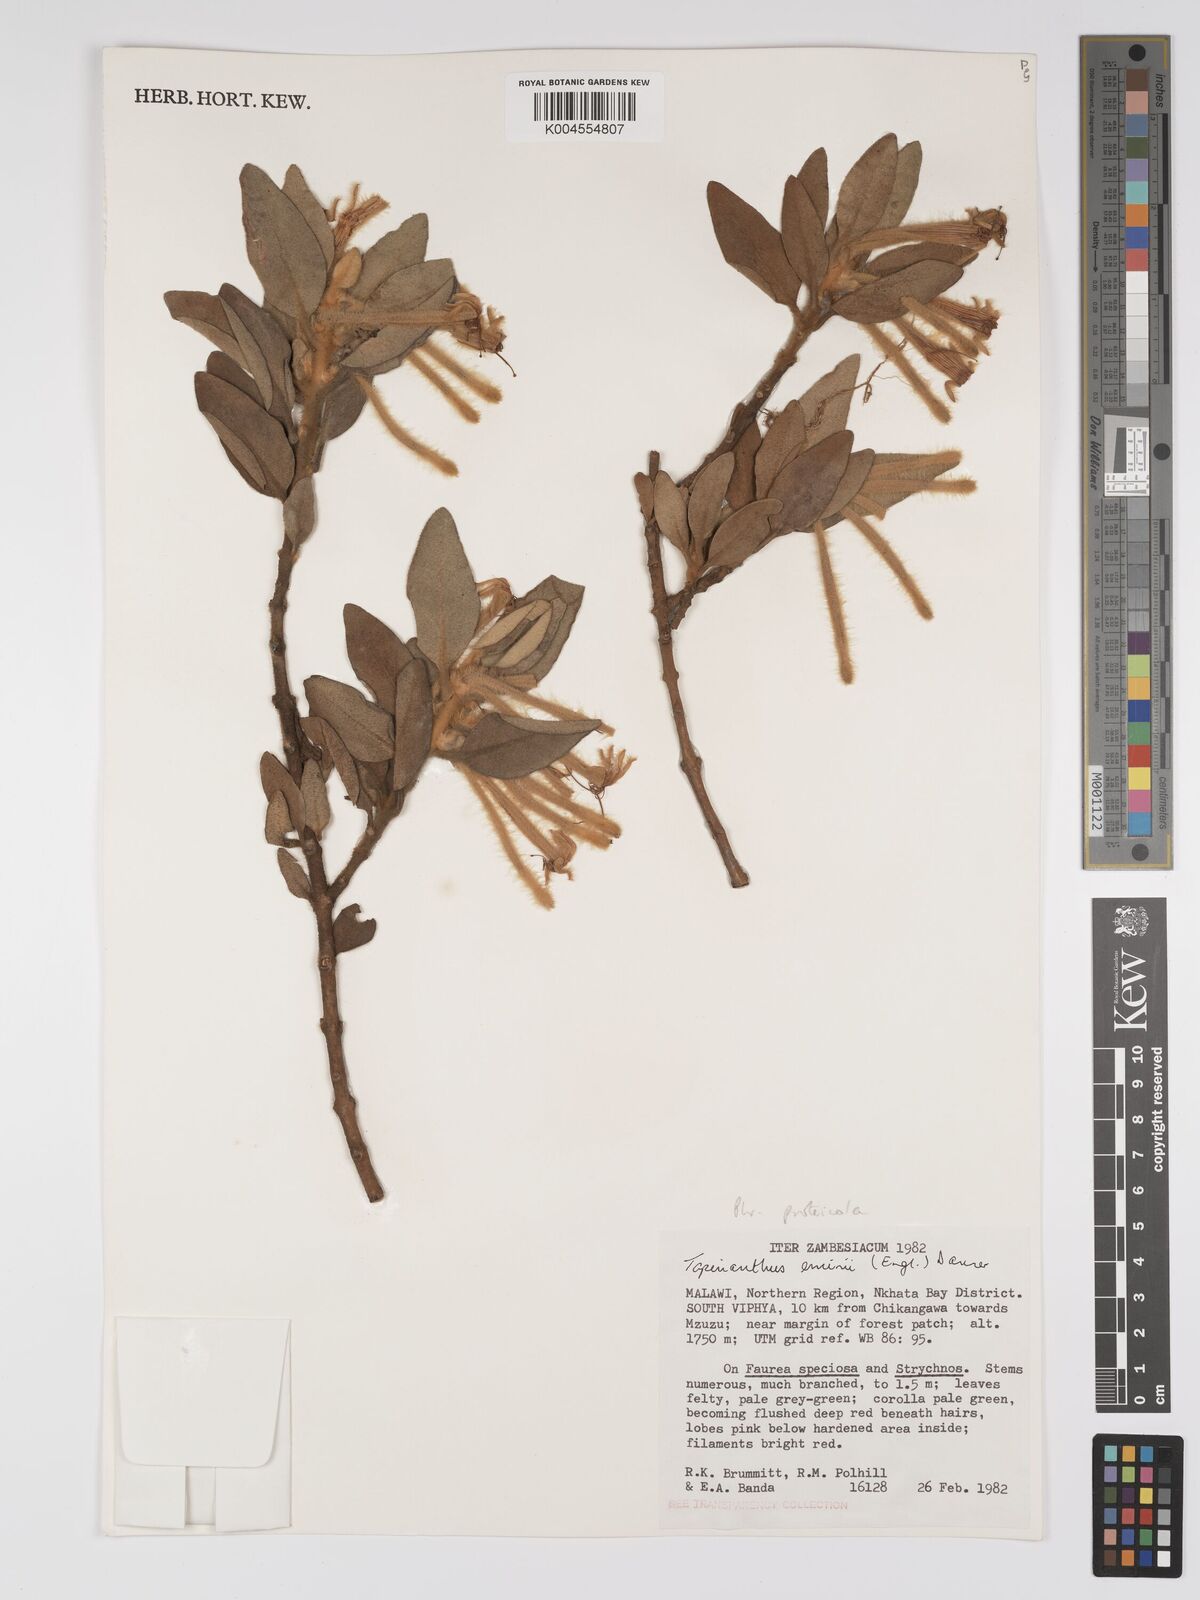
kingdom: Plantae
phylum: Tracheophyta
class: Magnoliopsida
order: Santalales
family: Loranthaceae
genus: Phragmanthera
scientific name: Phragmanthera proteicola
